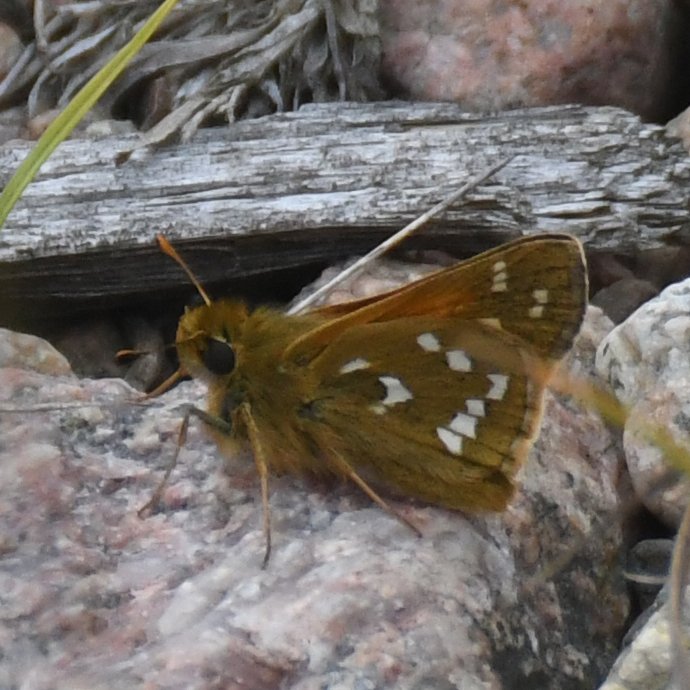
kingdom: Animalia
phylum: Arthropoda
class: Insecta
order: Lepidoptera
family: Hesperiidae
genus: Hesperia
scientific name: Hesperia comma
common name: Common Branded Skipper
